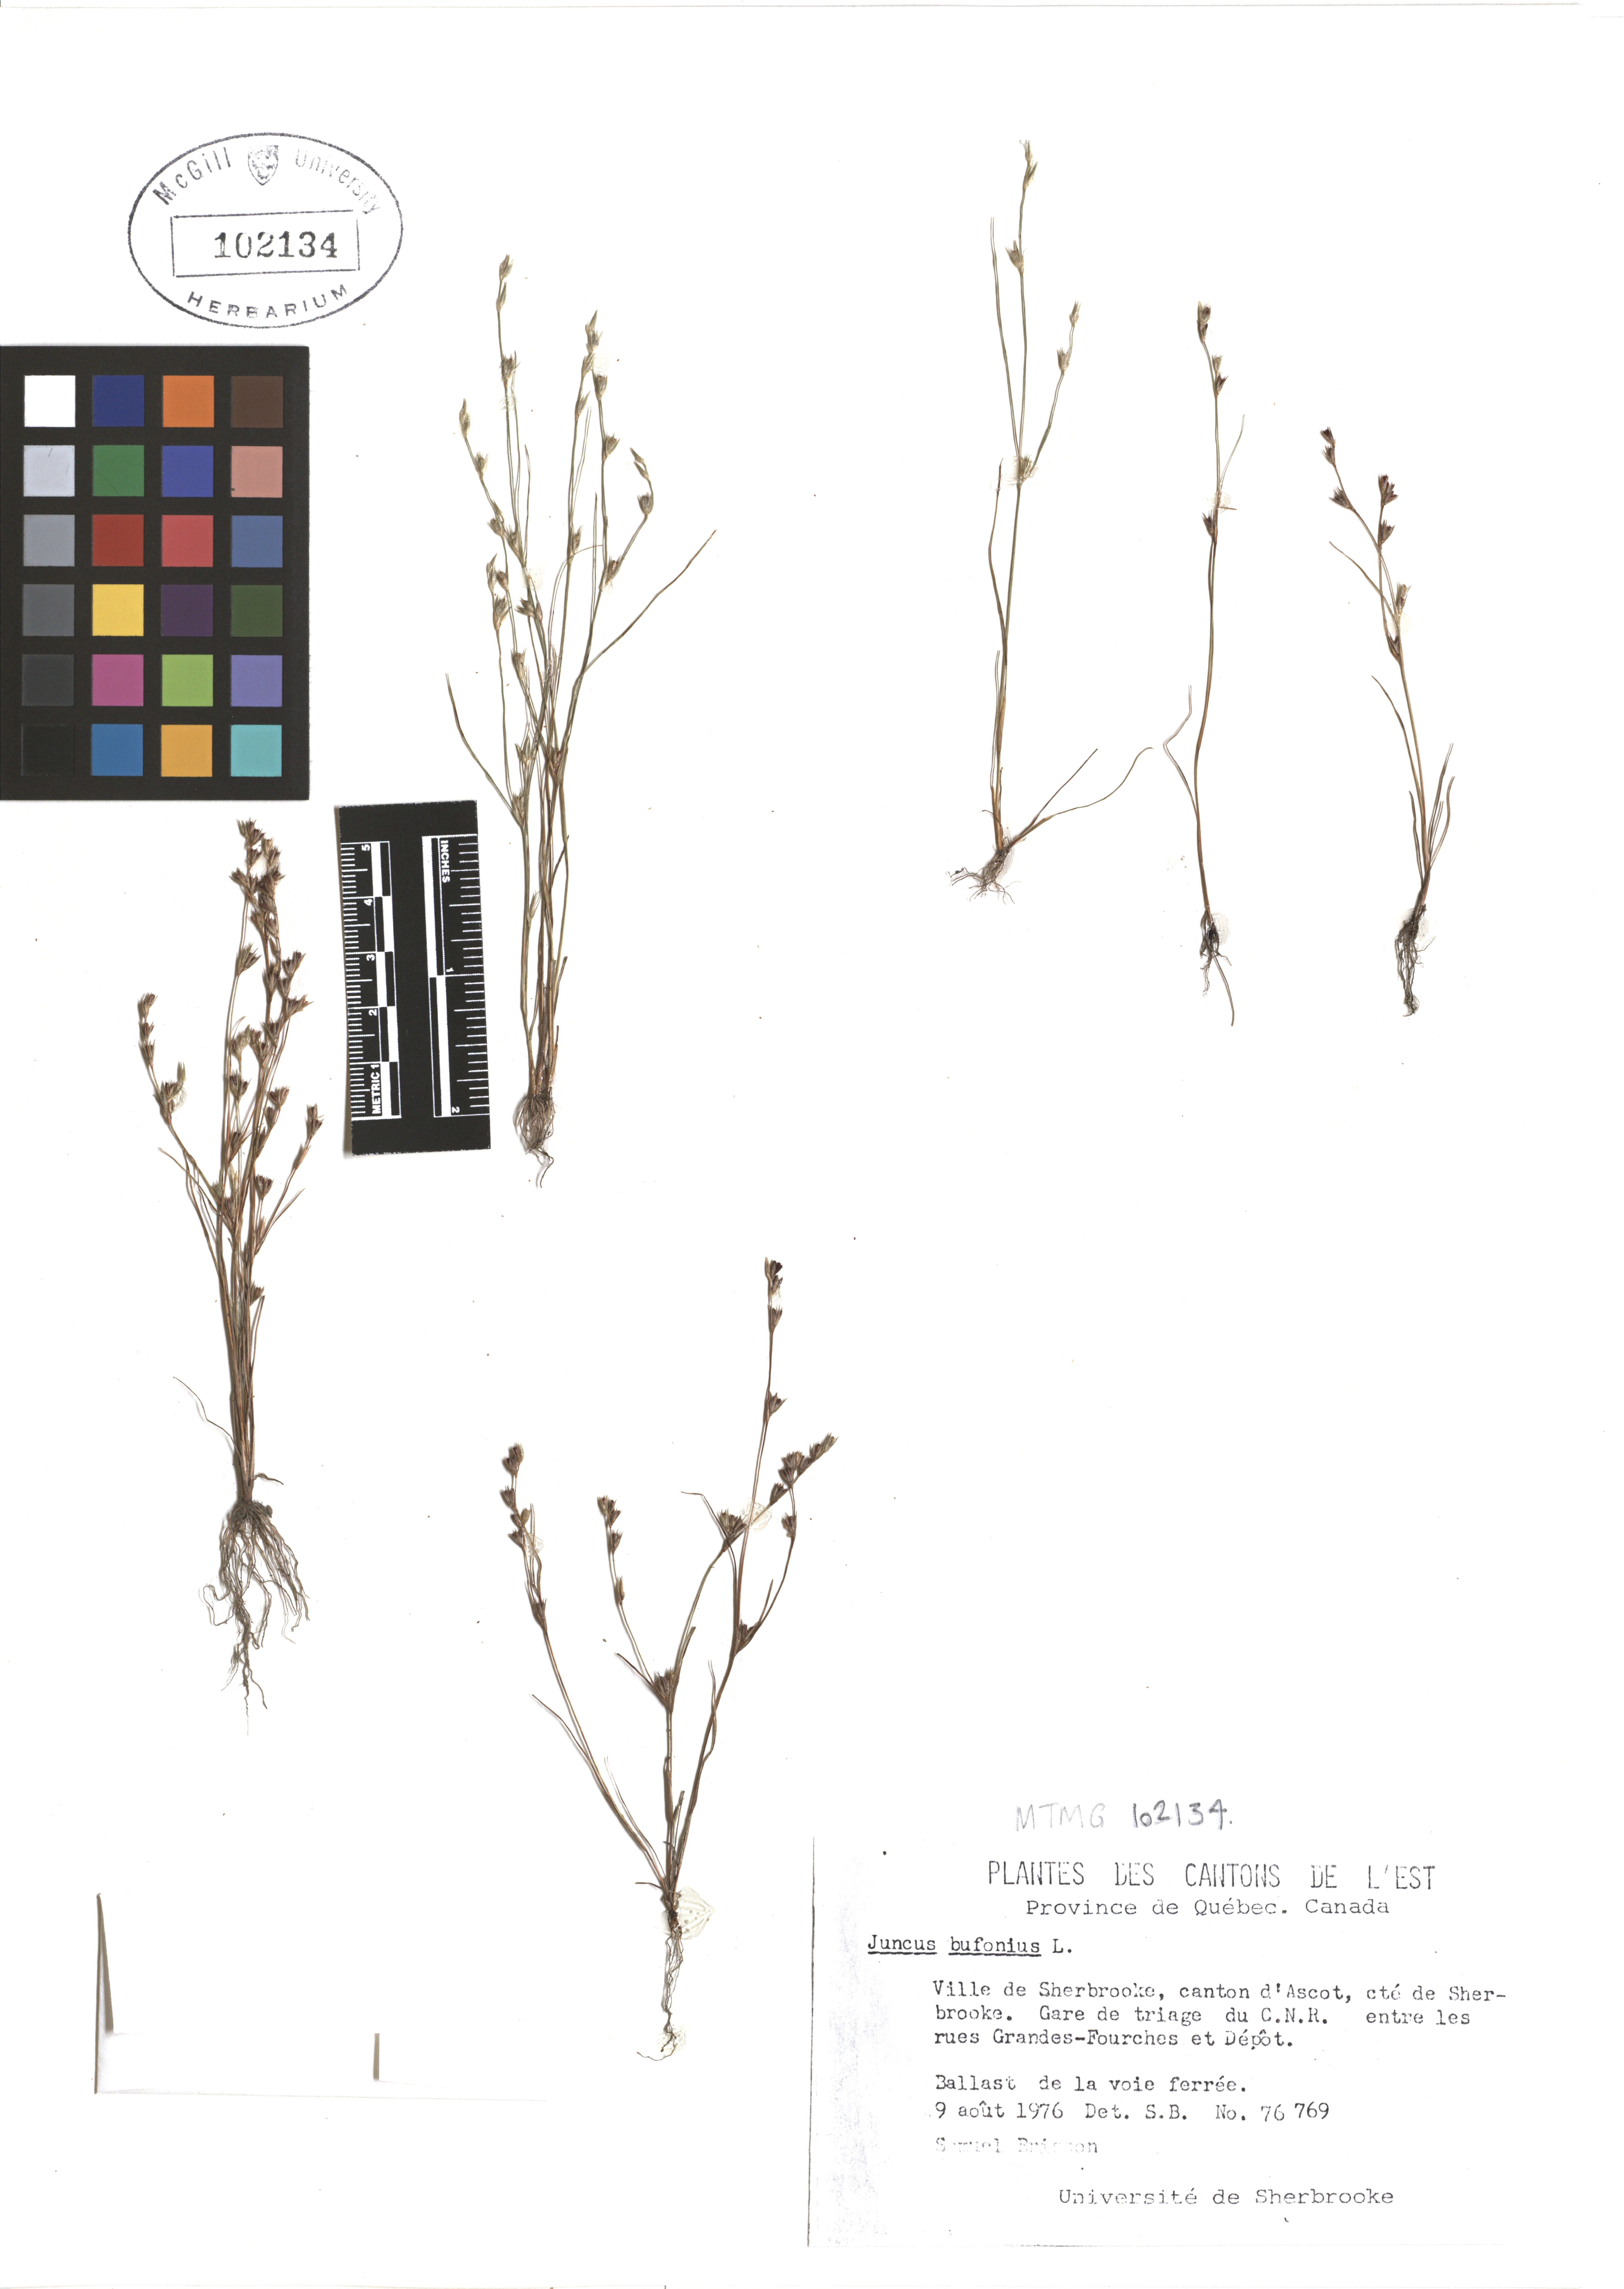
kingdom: Plantae
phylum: Tracheophyta
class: Liliopsida
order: Poales
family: Juncaceae
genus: Juncus
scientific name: Juncus bufonius
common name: Toad rush
